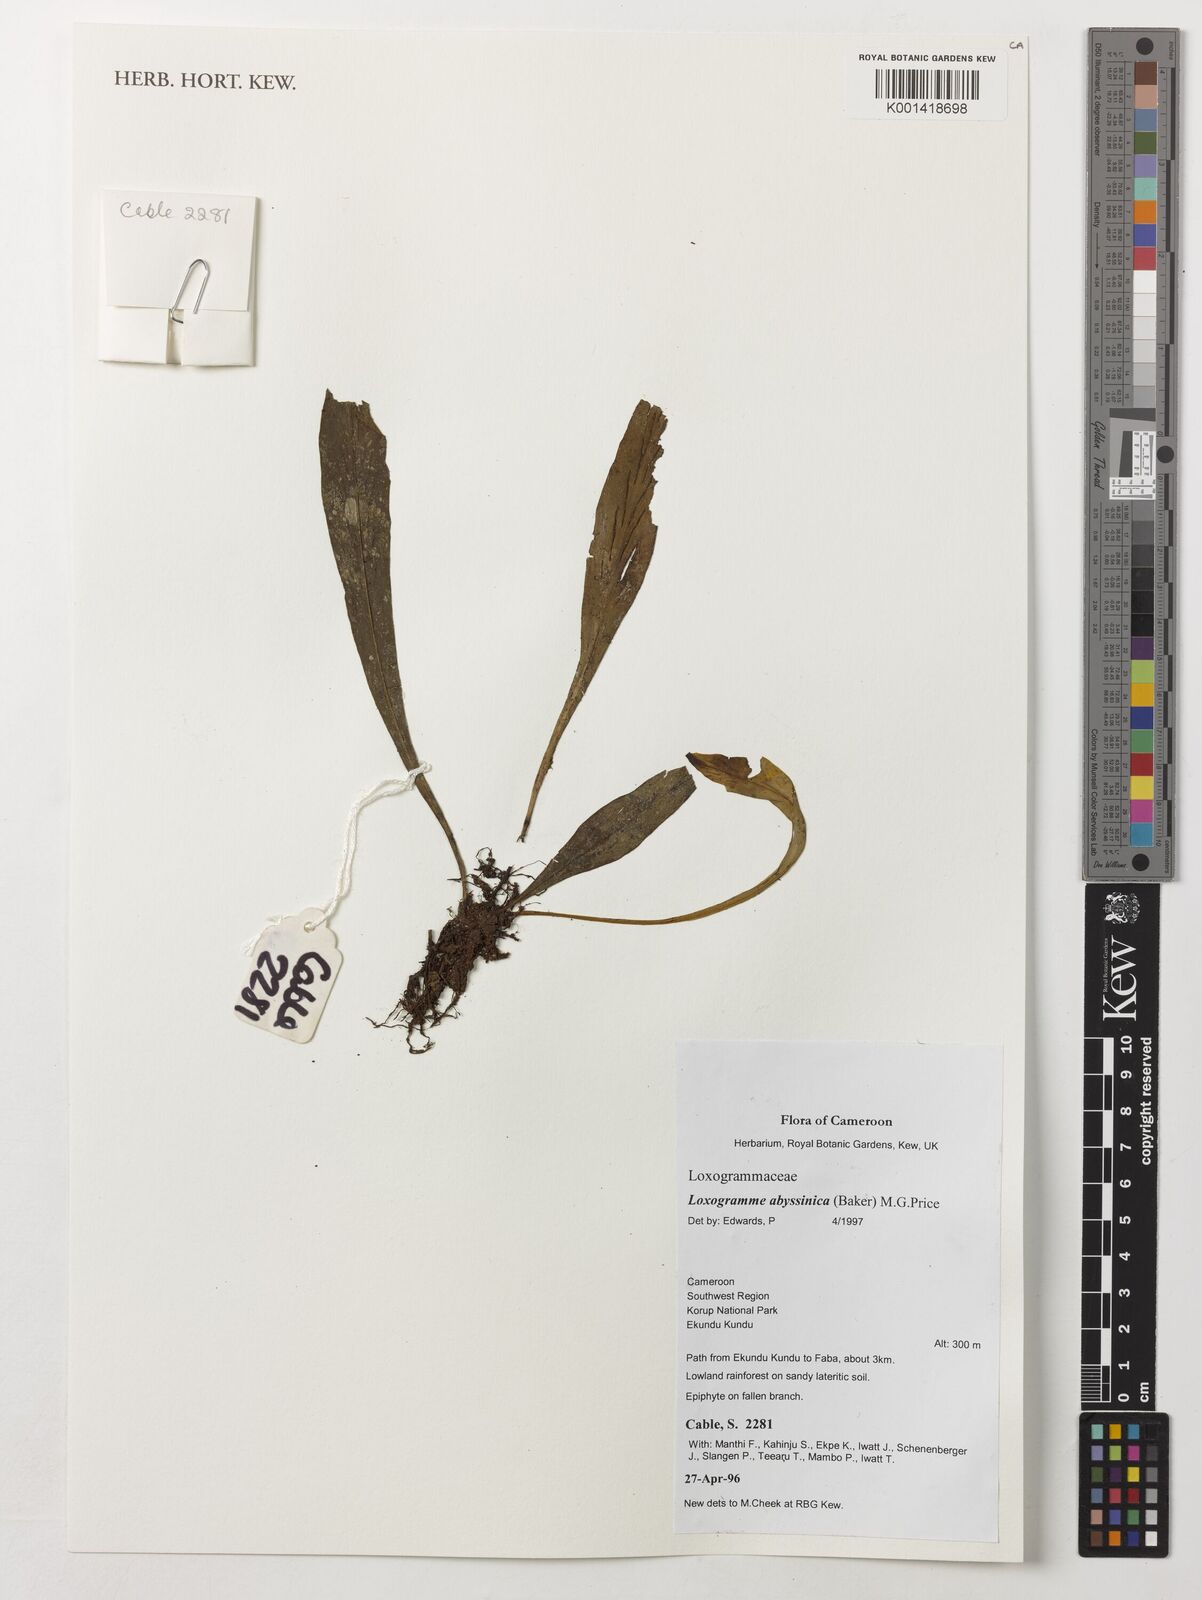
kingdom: Plantae
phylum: Tracheophyta
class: Polypodiopsida
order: Polypodiales
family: Polypodiaceae
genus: Loxogramme
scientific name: Loxogramme abyssinica
